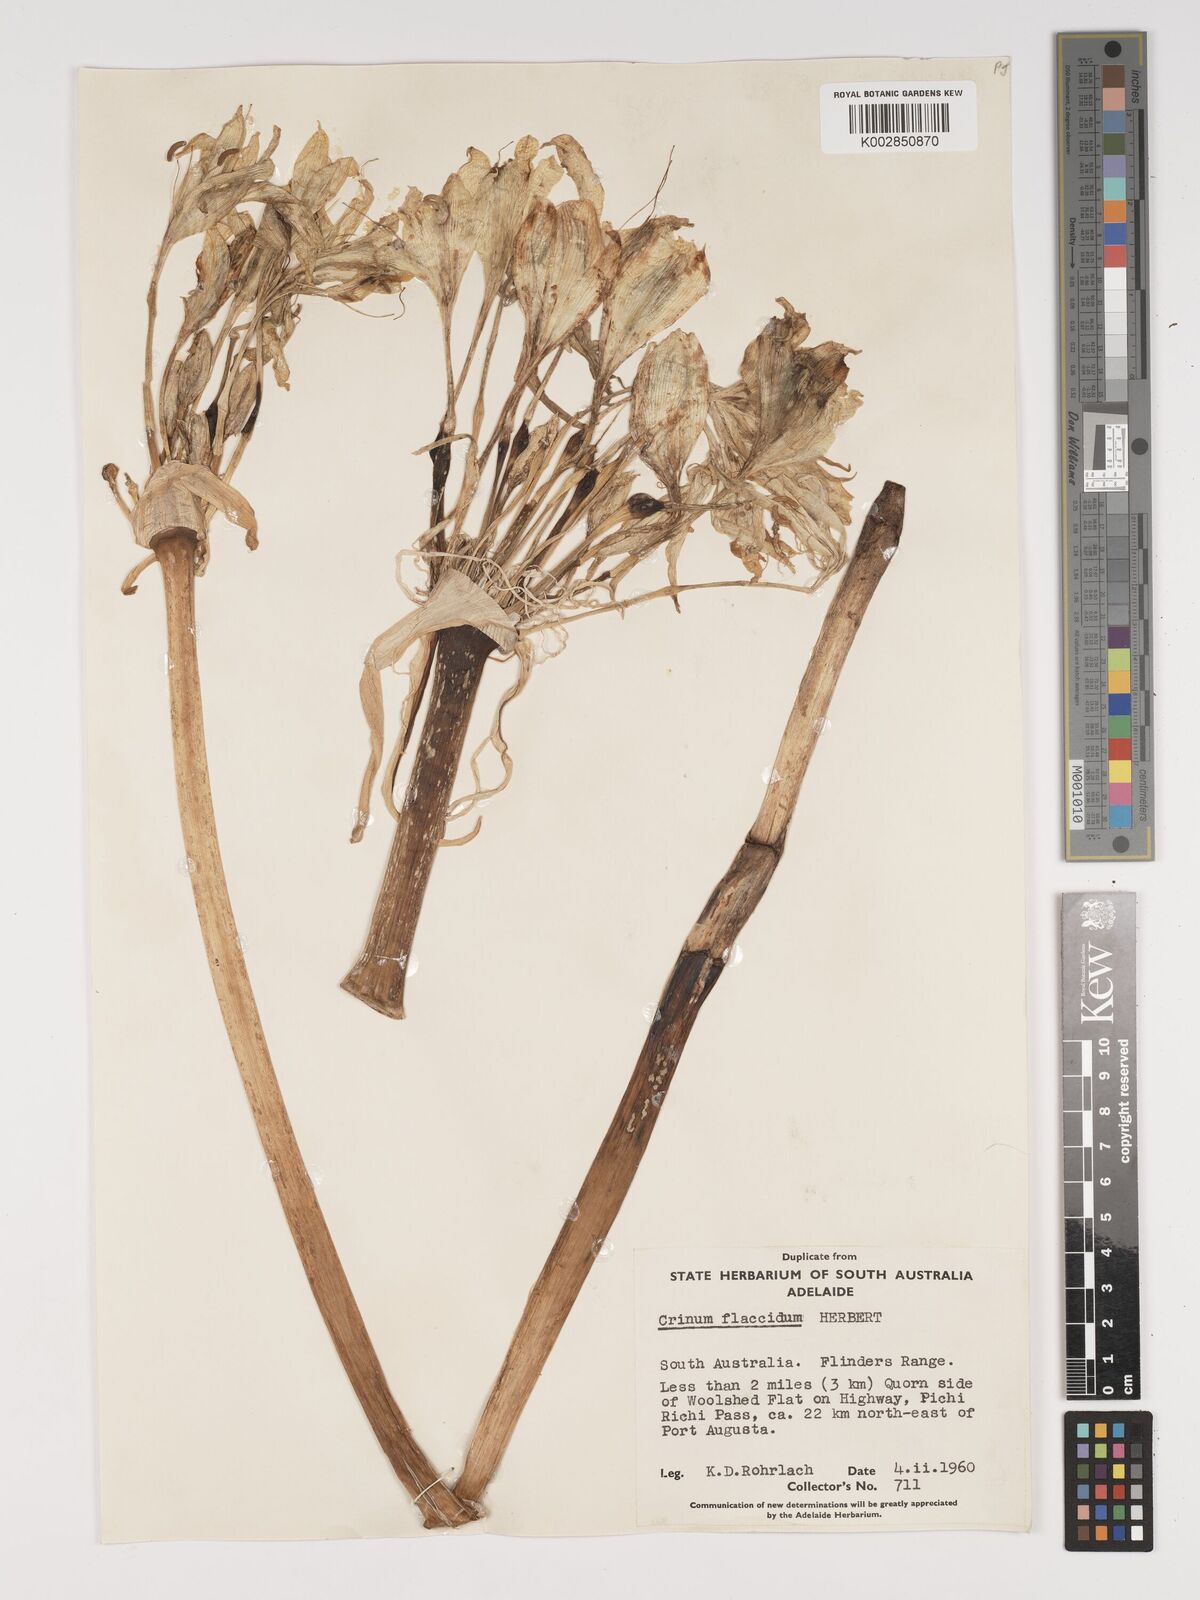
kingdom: Plantae
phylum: Tracheophyta
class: Liliopsida
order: Asparagales
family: Amaryllidaceae
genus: Crinum
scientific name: Crinum flaccidum
